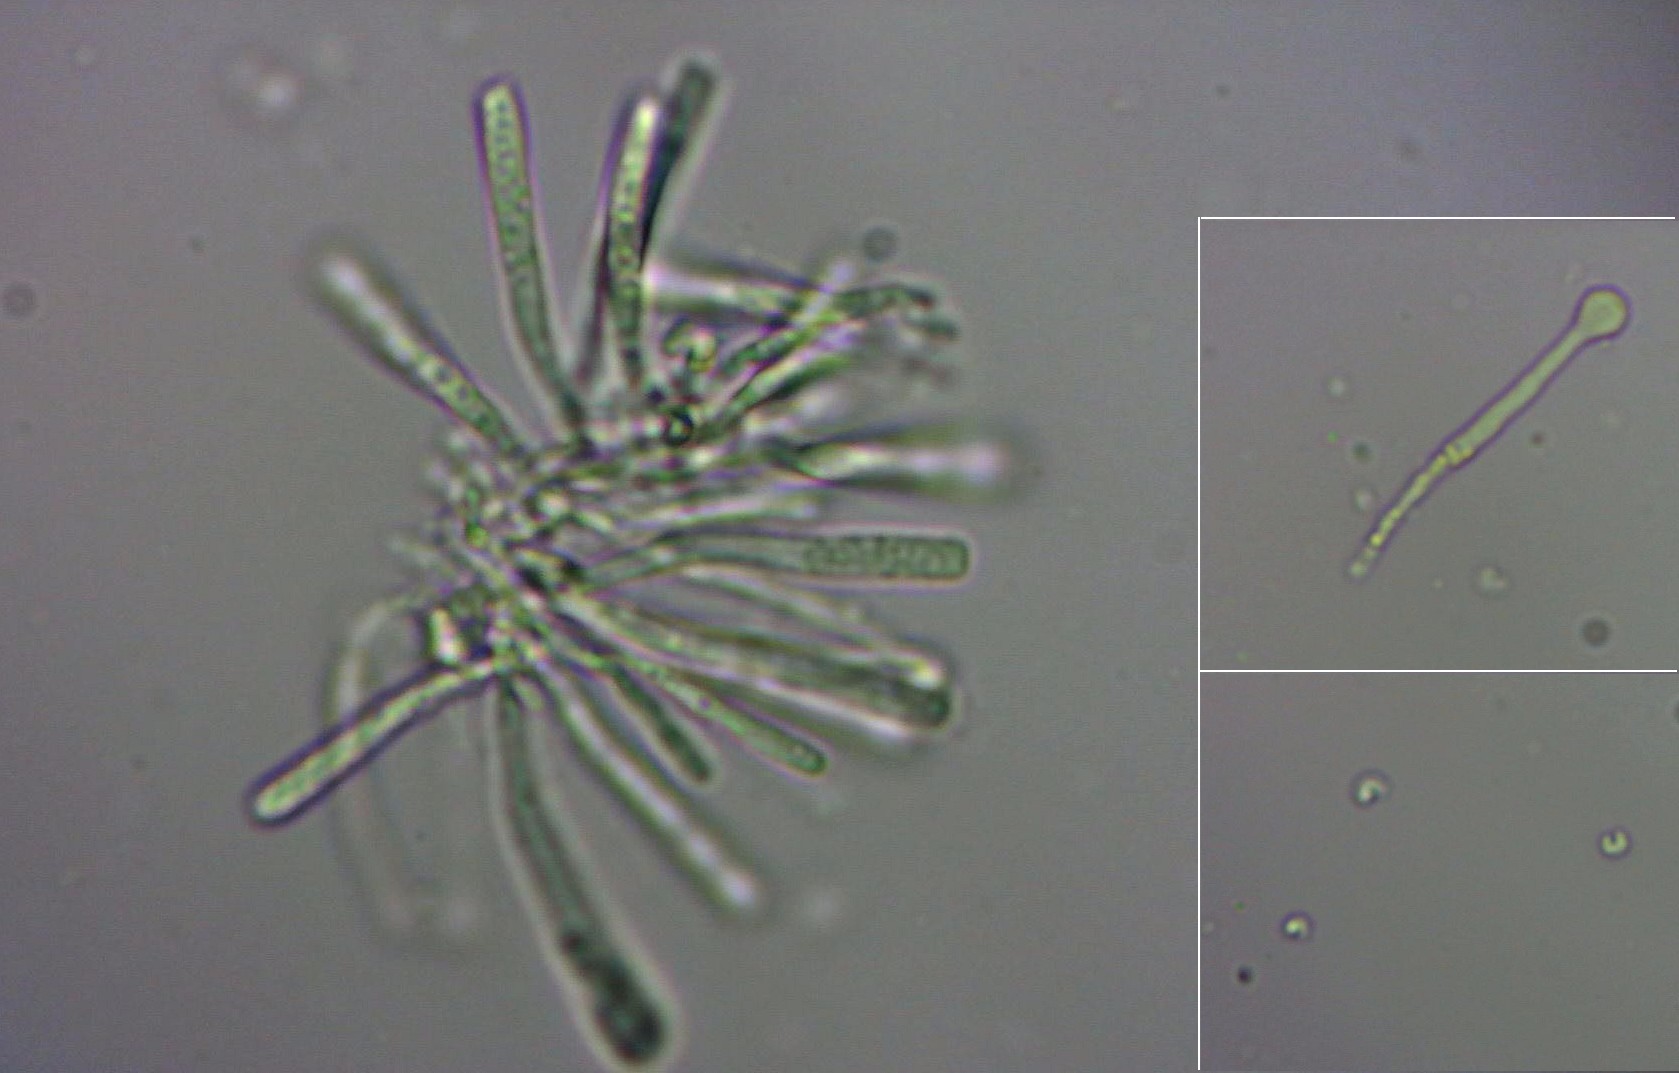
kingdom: Fungi
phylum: Ascomycota
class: Orbiliomycetes
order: Orbiliales
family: Orbiliaceae
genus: Orbilia
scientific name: Orbilia xanthostigma
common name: krumsporet voksskive
